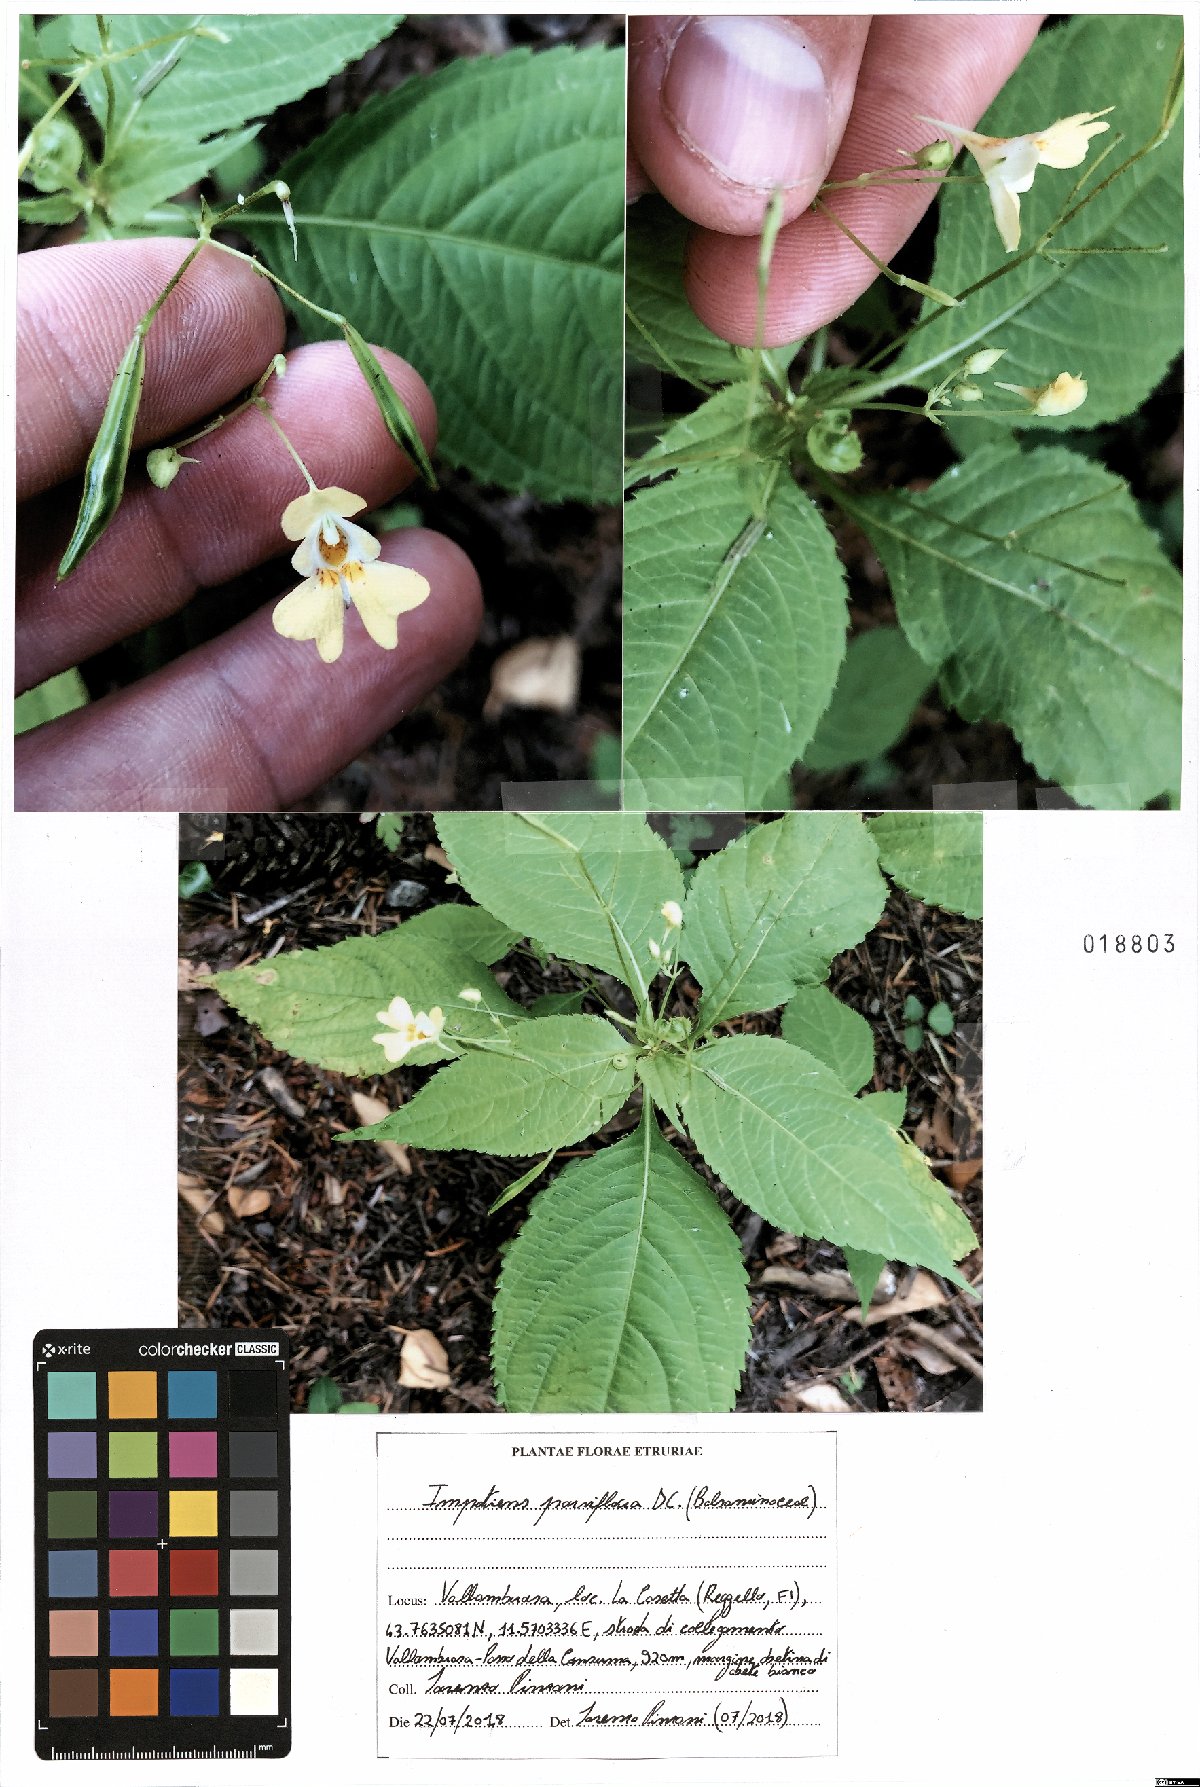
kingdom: Plantae
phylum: Tracheophyta
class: Magnoliopsida
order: Ericales
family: Balsaminaceae
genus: Impatiens
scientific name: Impatiens parviflora
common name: Small balsam
